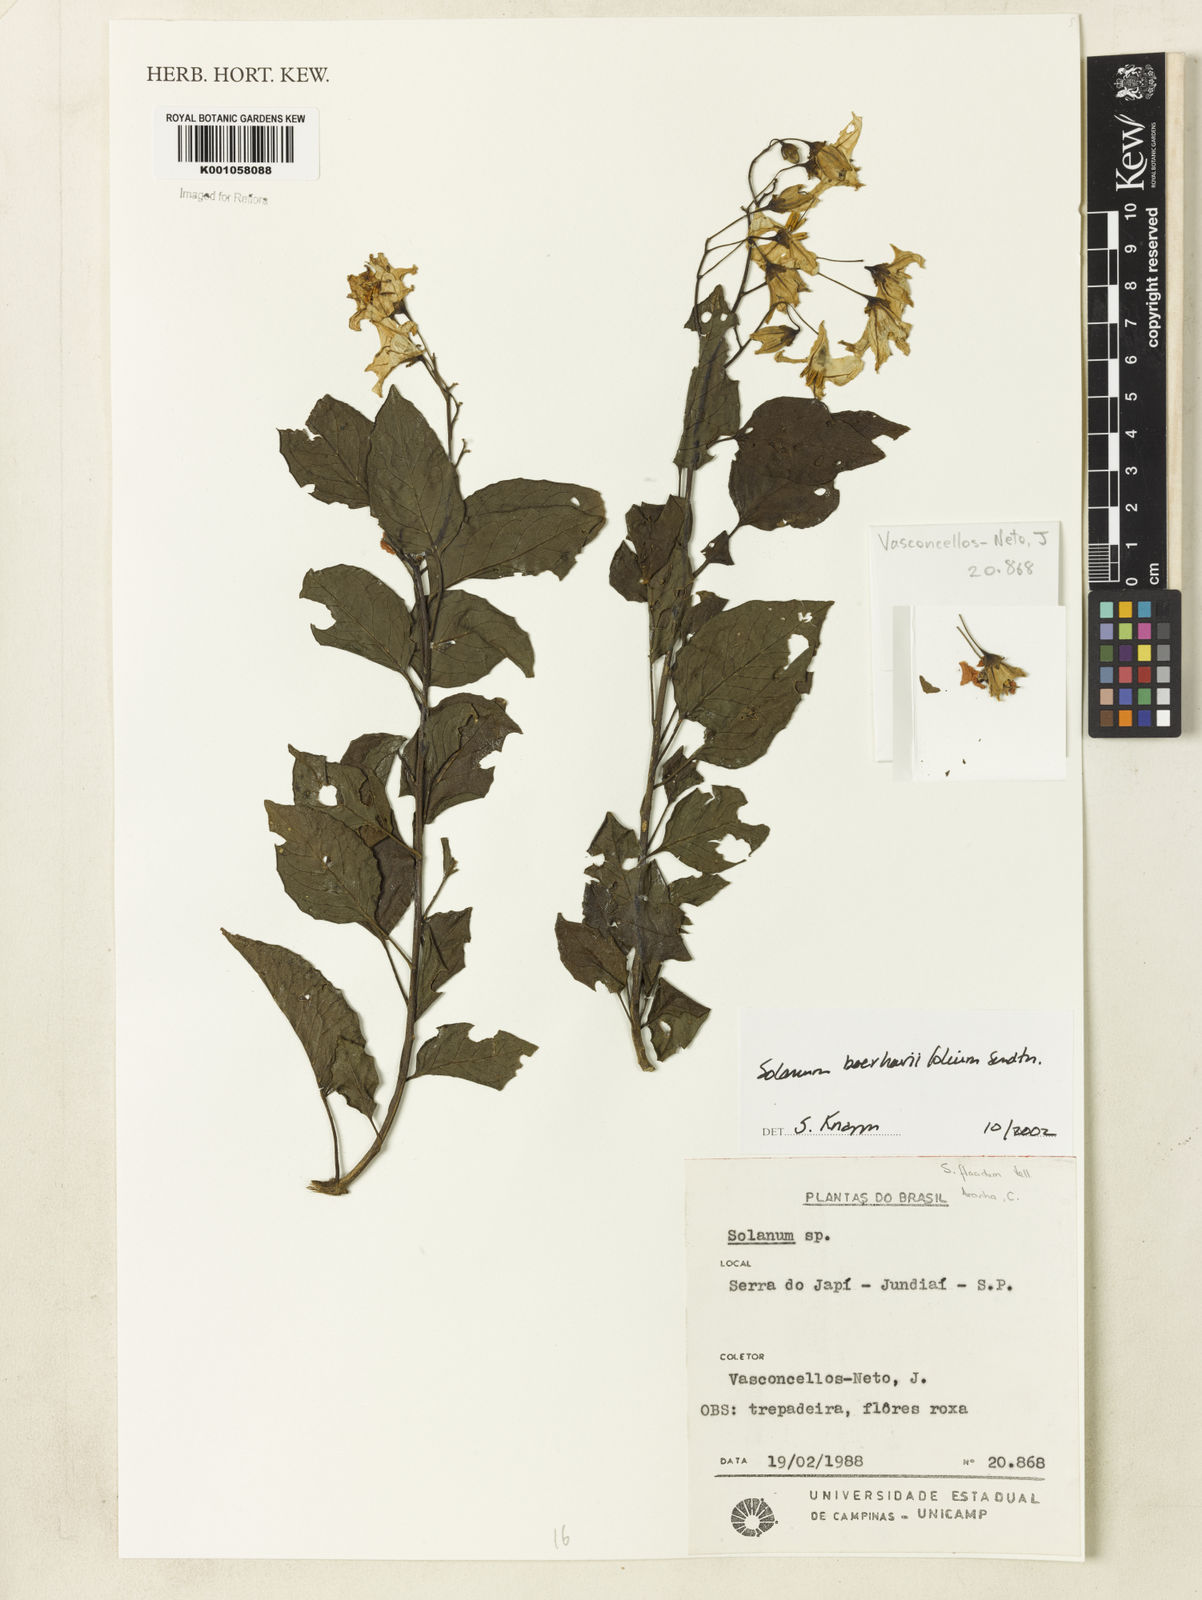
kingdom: Plantae
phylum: Tracheophyta
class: Magnoliopsida
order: Solanales
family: Solanaceae
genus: Solanum
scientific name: Solanum
